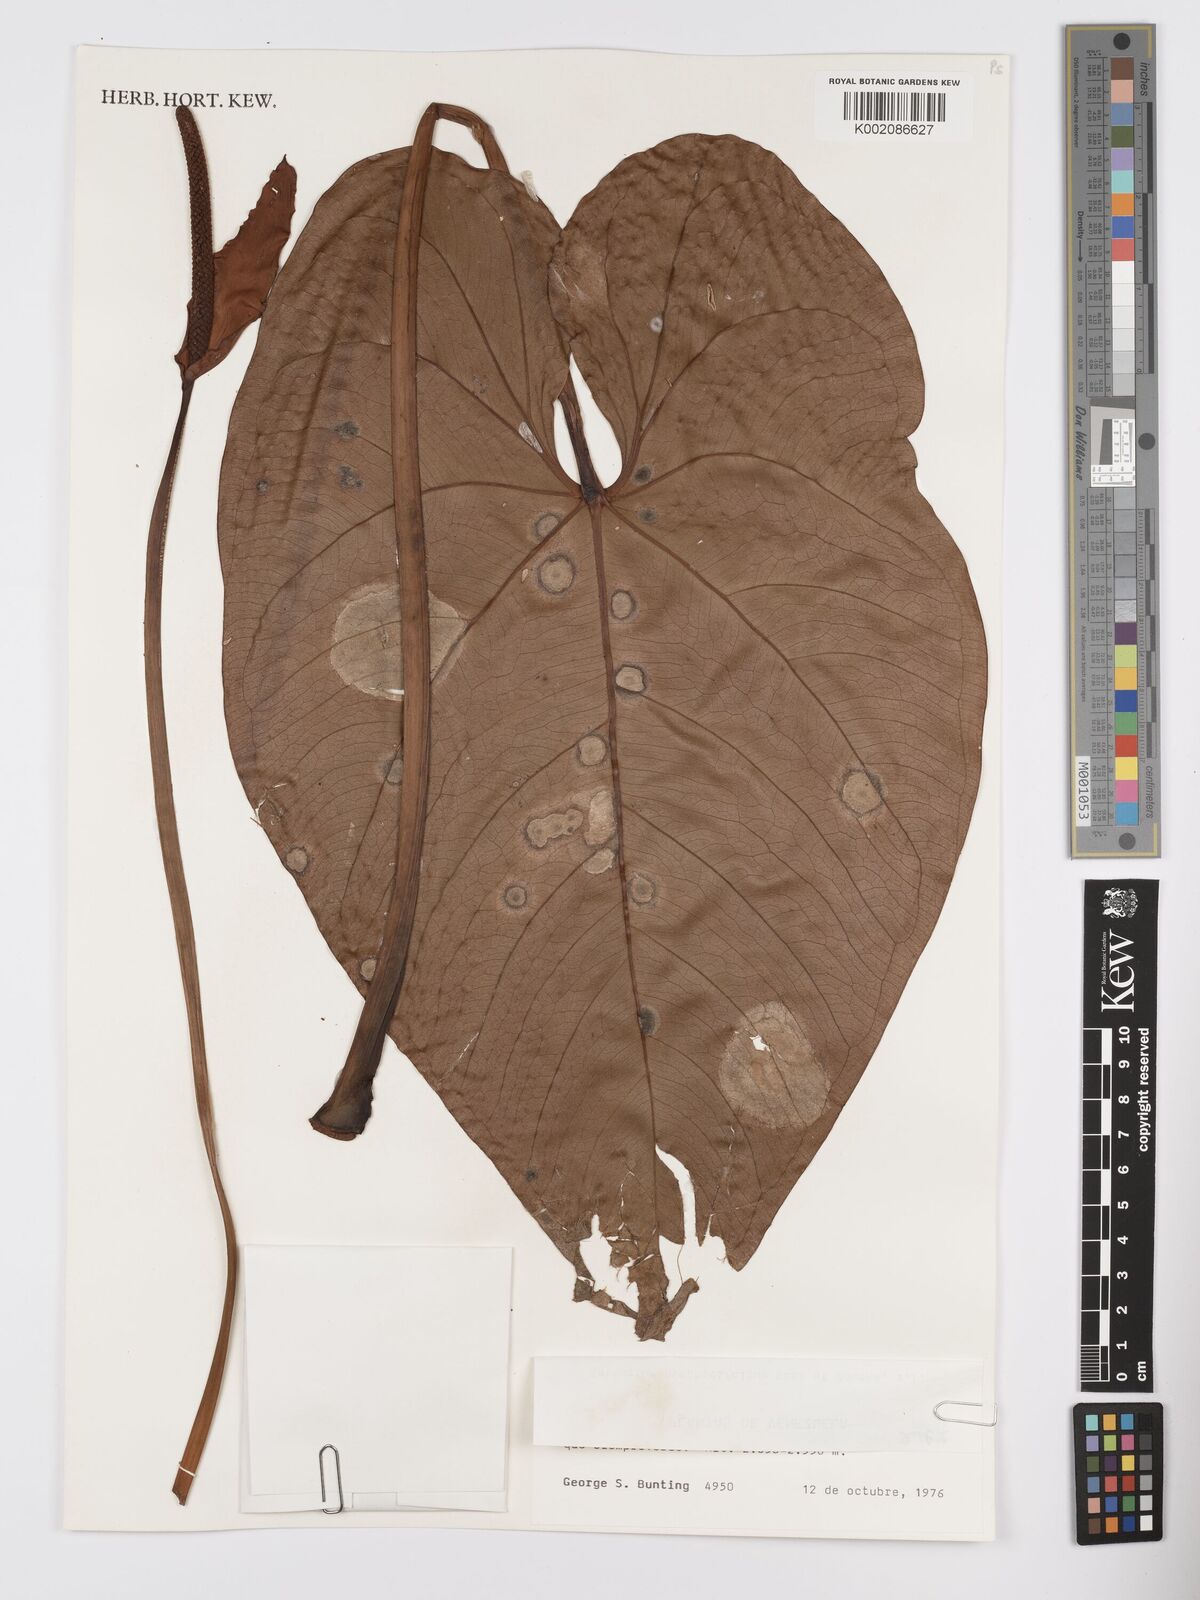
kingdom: Plantae
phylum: Tracheophyta
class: Liliopsida
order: Alismatales
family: Araceae
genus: Anthurium
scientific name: Anthurium nymphaeifolium
